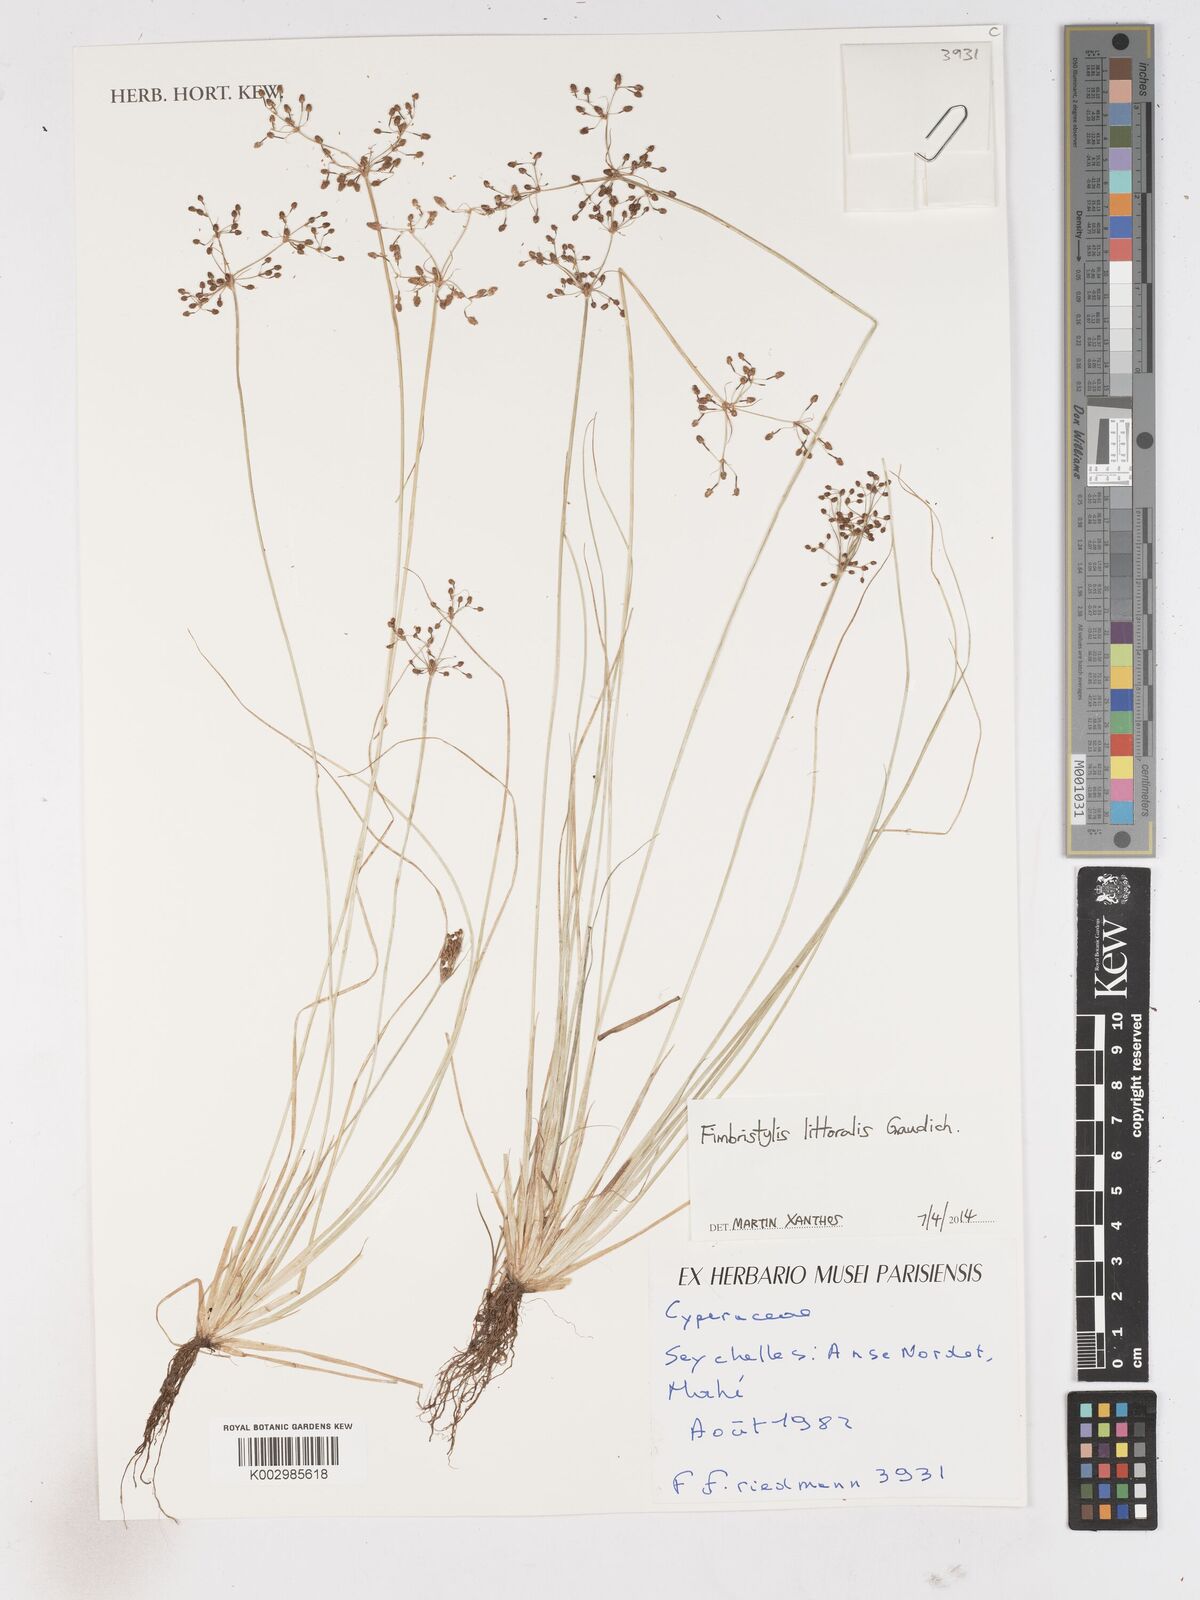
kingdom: Plantae
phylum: Tracheophyta
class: Liliopsida
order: Poales
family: Cyperaceae
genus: Fimbristylis
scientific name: Fimbristylis littoralis
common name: Fimbry
